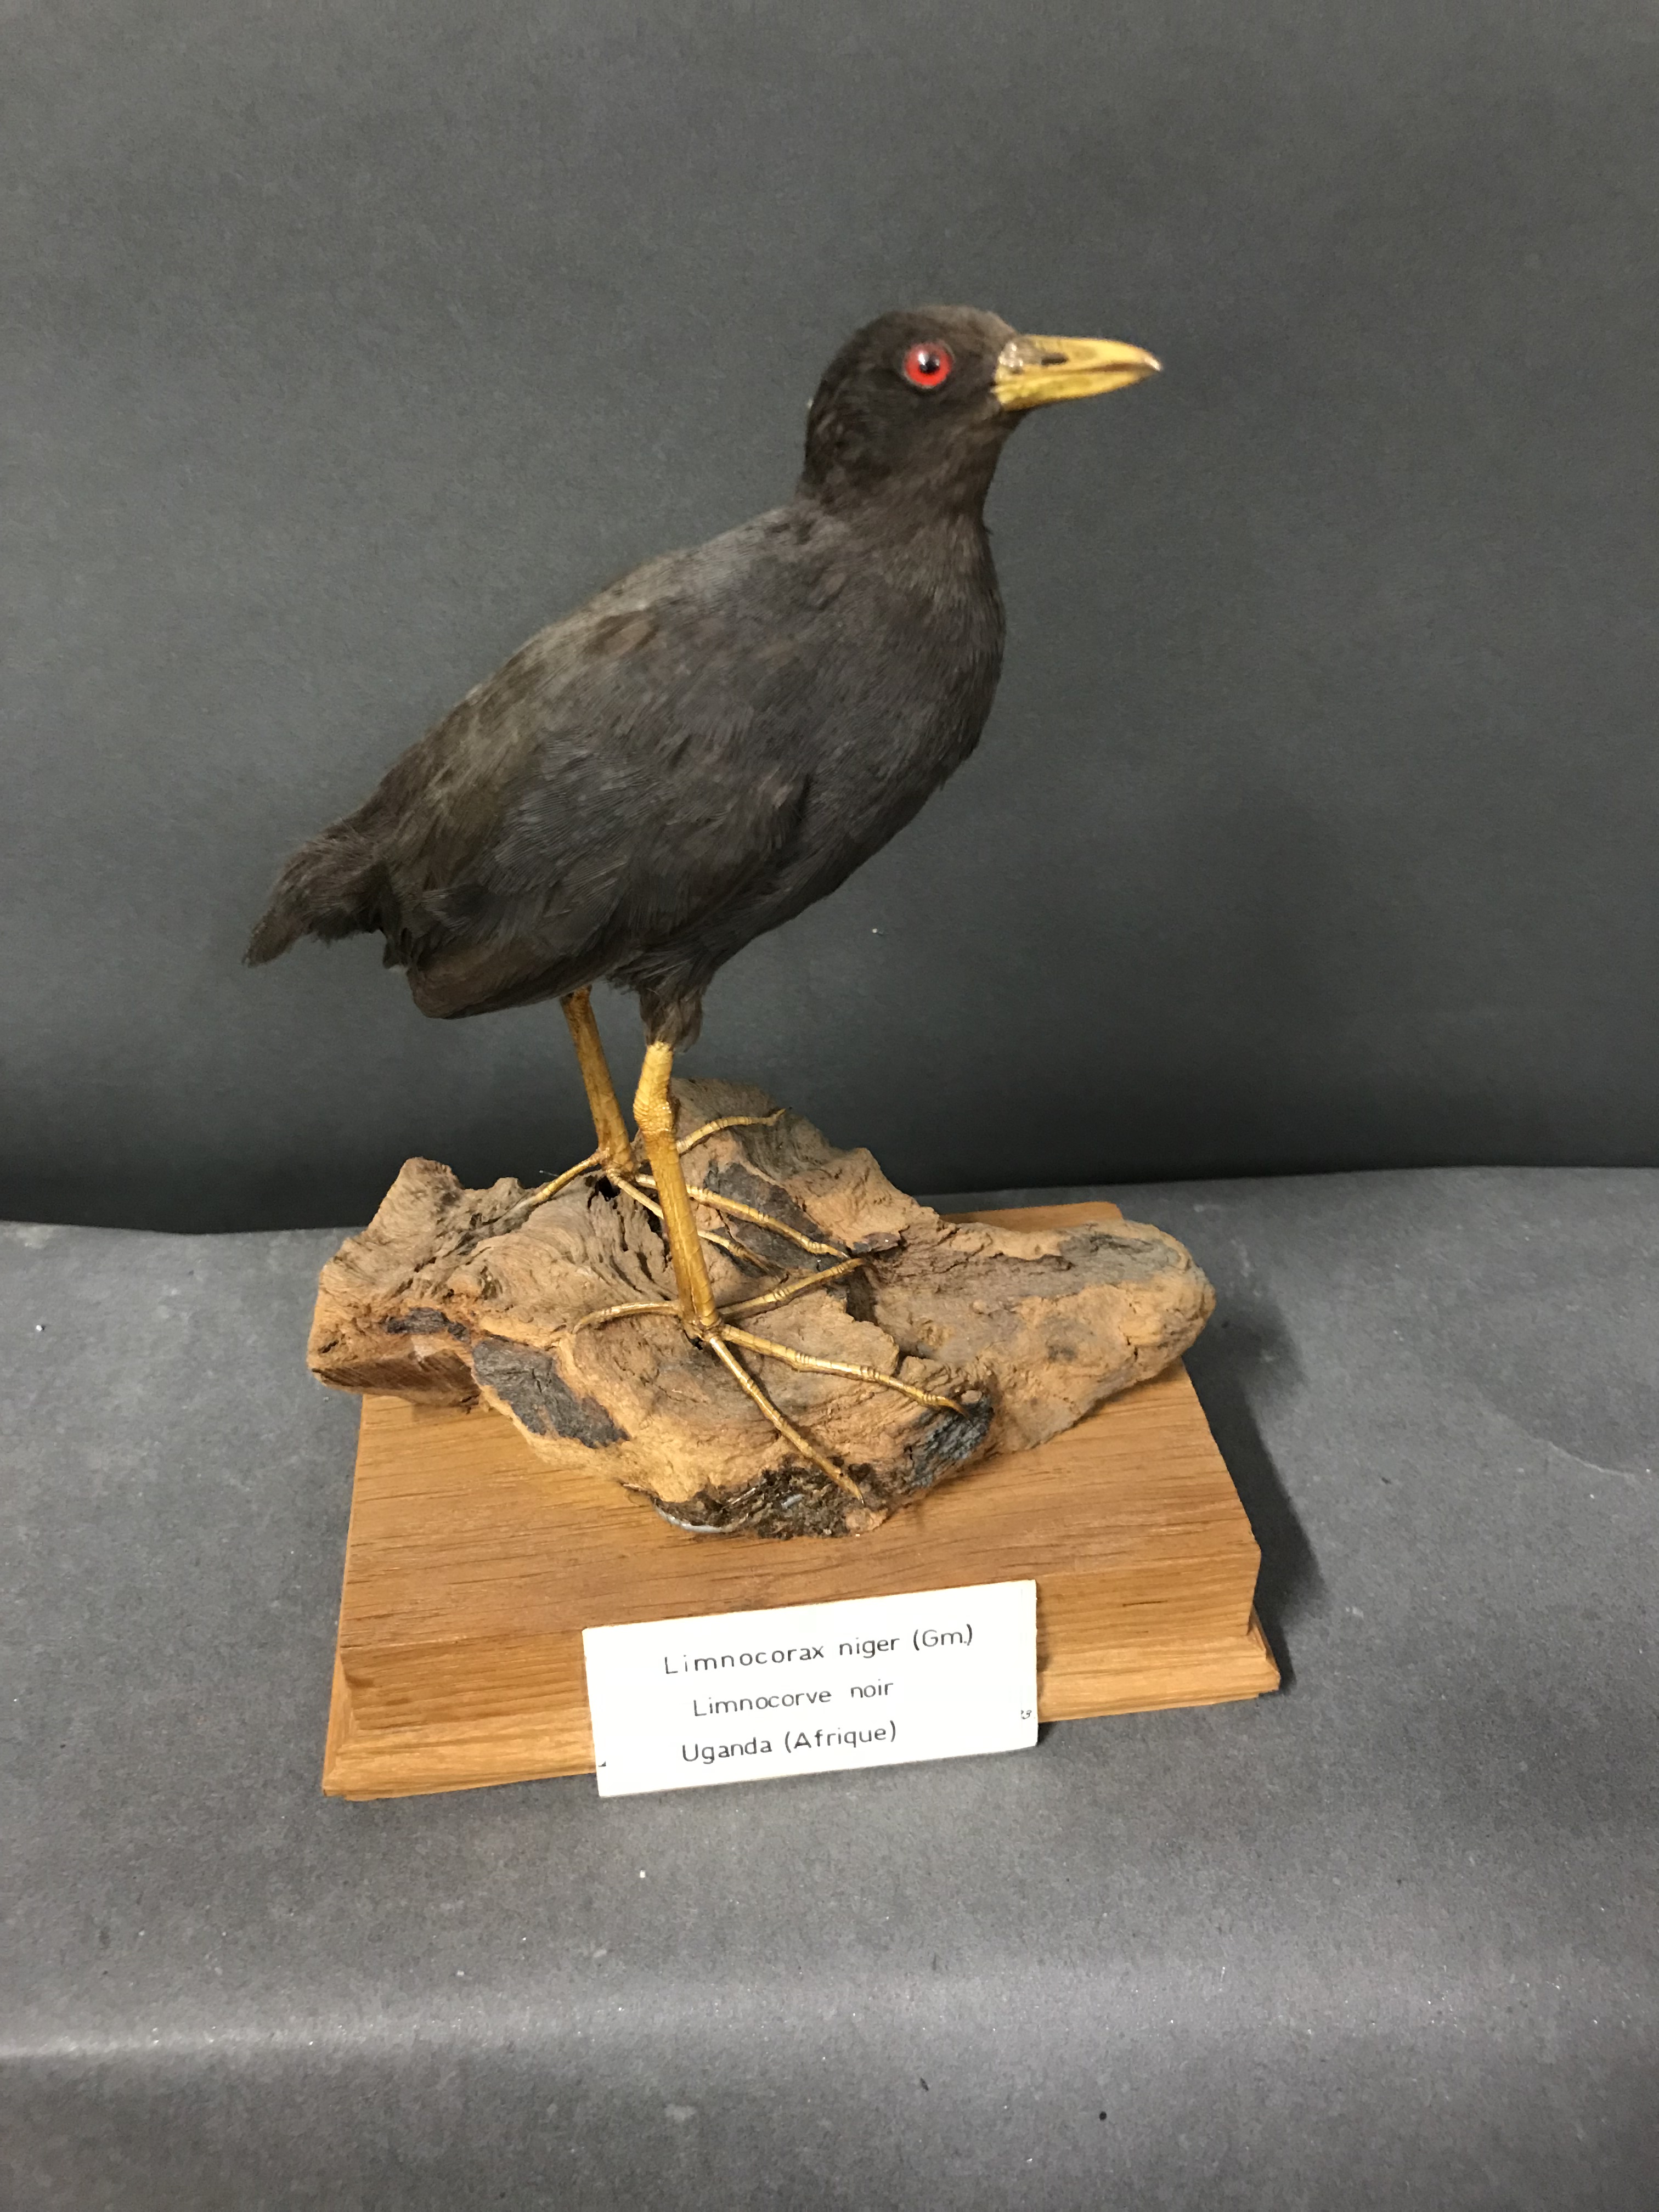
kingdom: Animalia
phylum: Chordata
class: Aves
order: Gruiformes
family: Rallidae
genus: Amaurornis
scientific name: Amaurornis flavirostra
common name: Black crake
